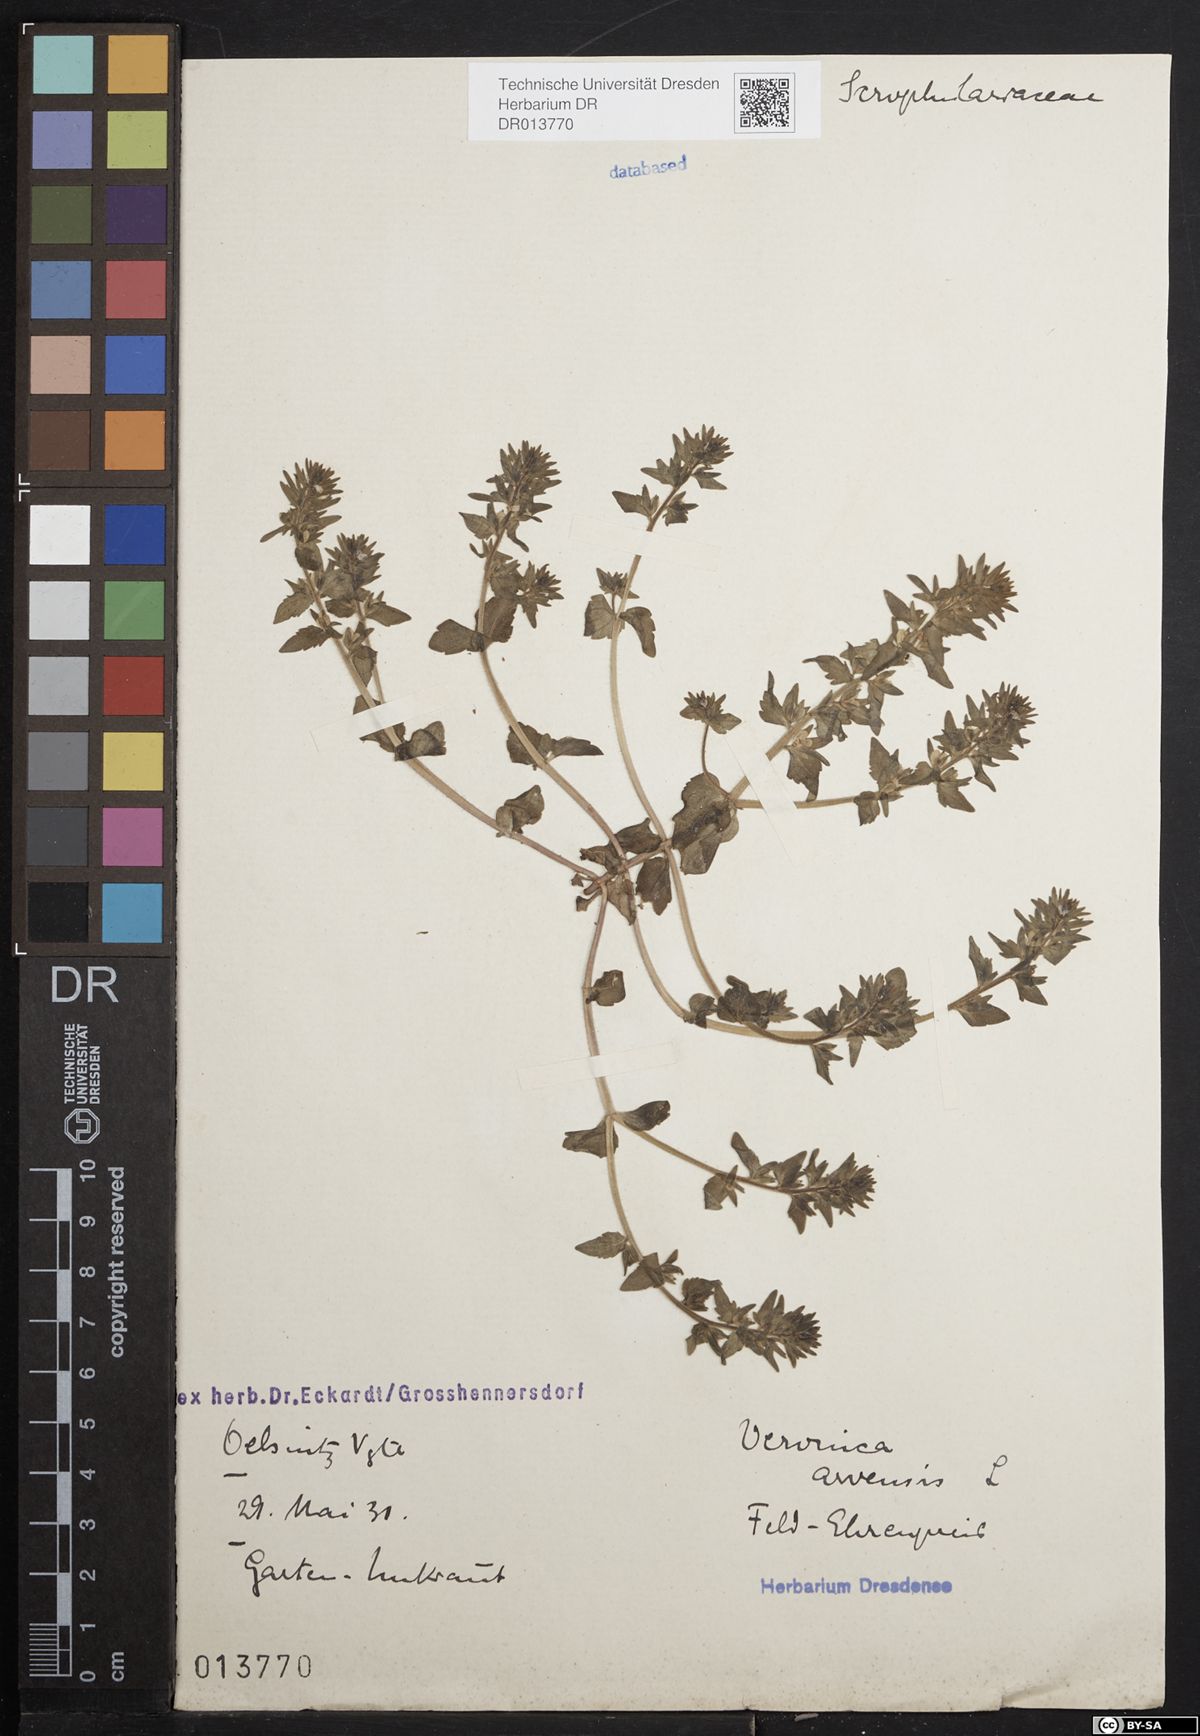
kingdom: Plantae
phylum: Tracheophyta
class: Magnoliopsida
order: Lamiales
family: Plantaginaceae
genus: Veronica
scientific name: Veronica arvensis
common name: Corn speedwell
